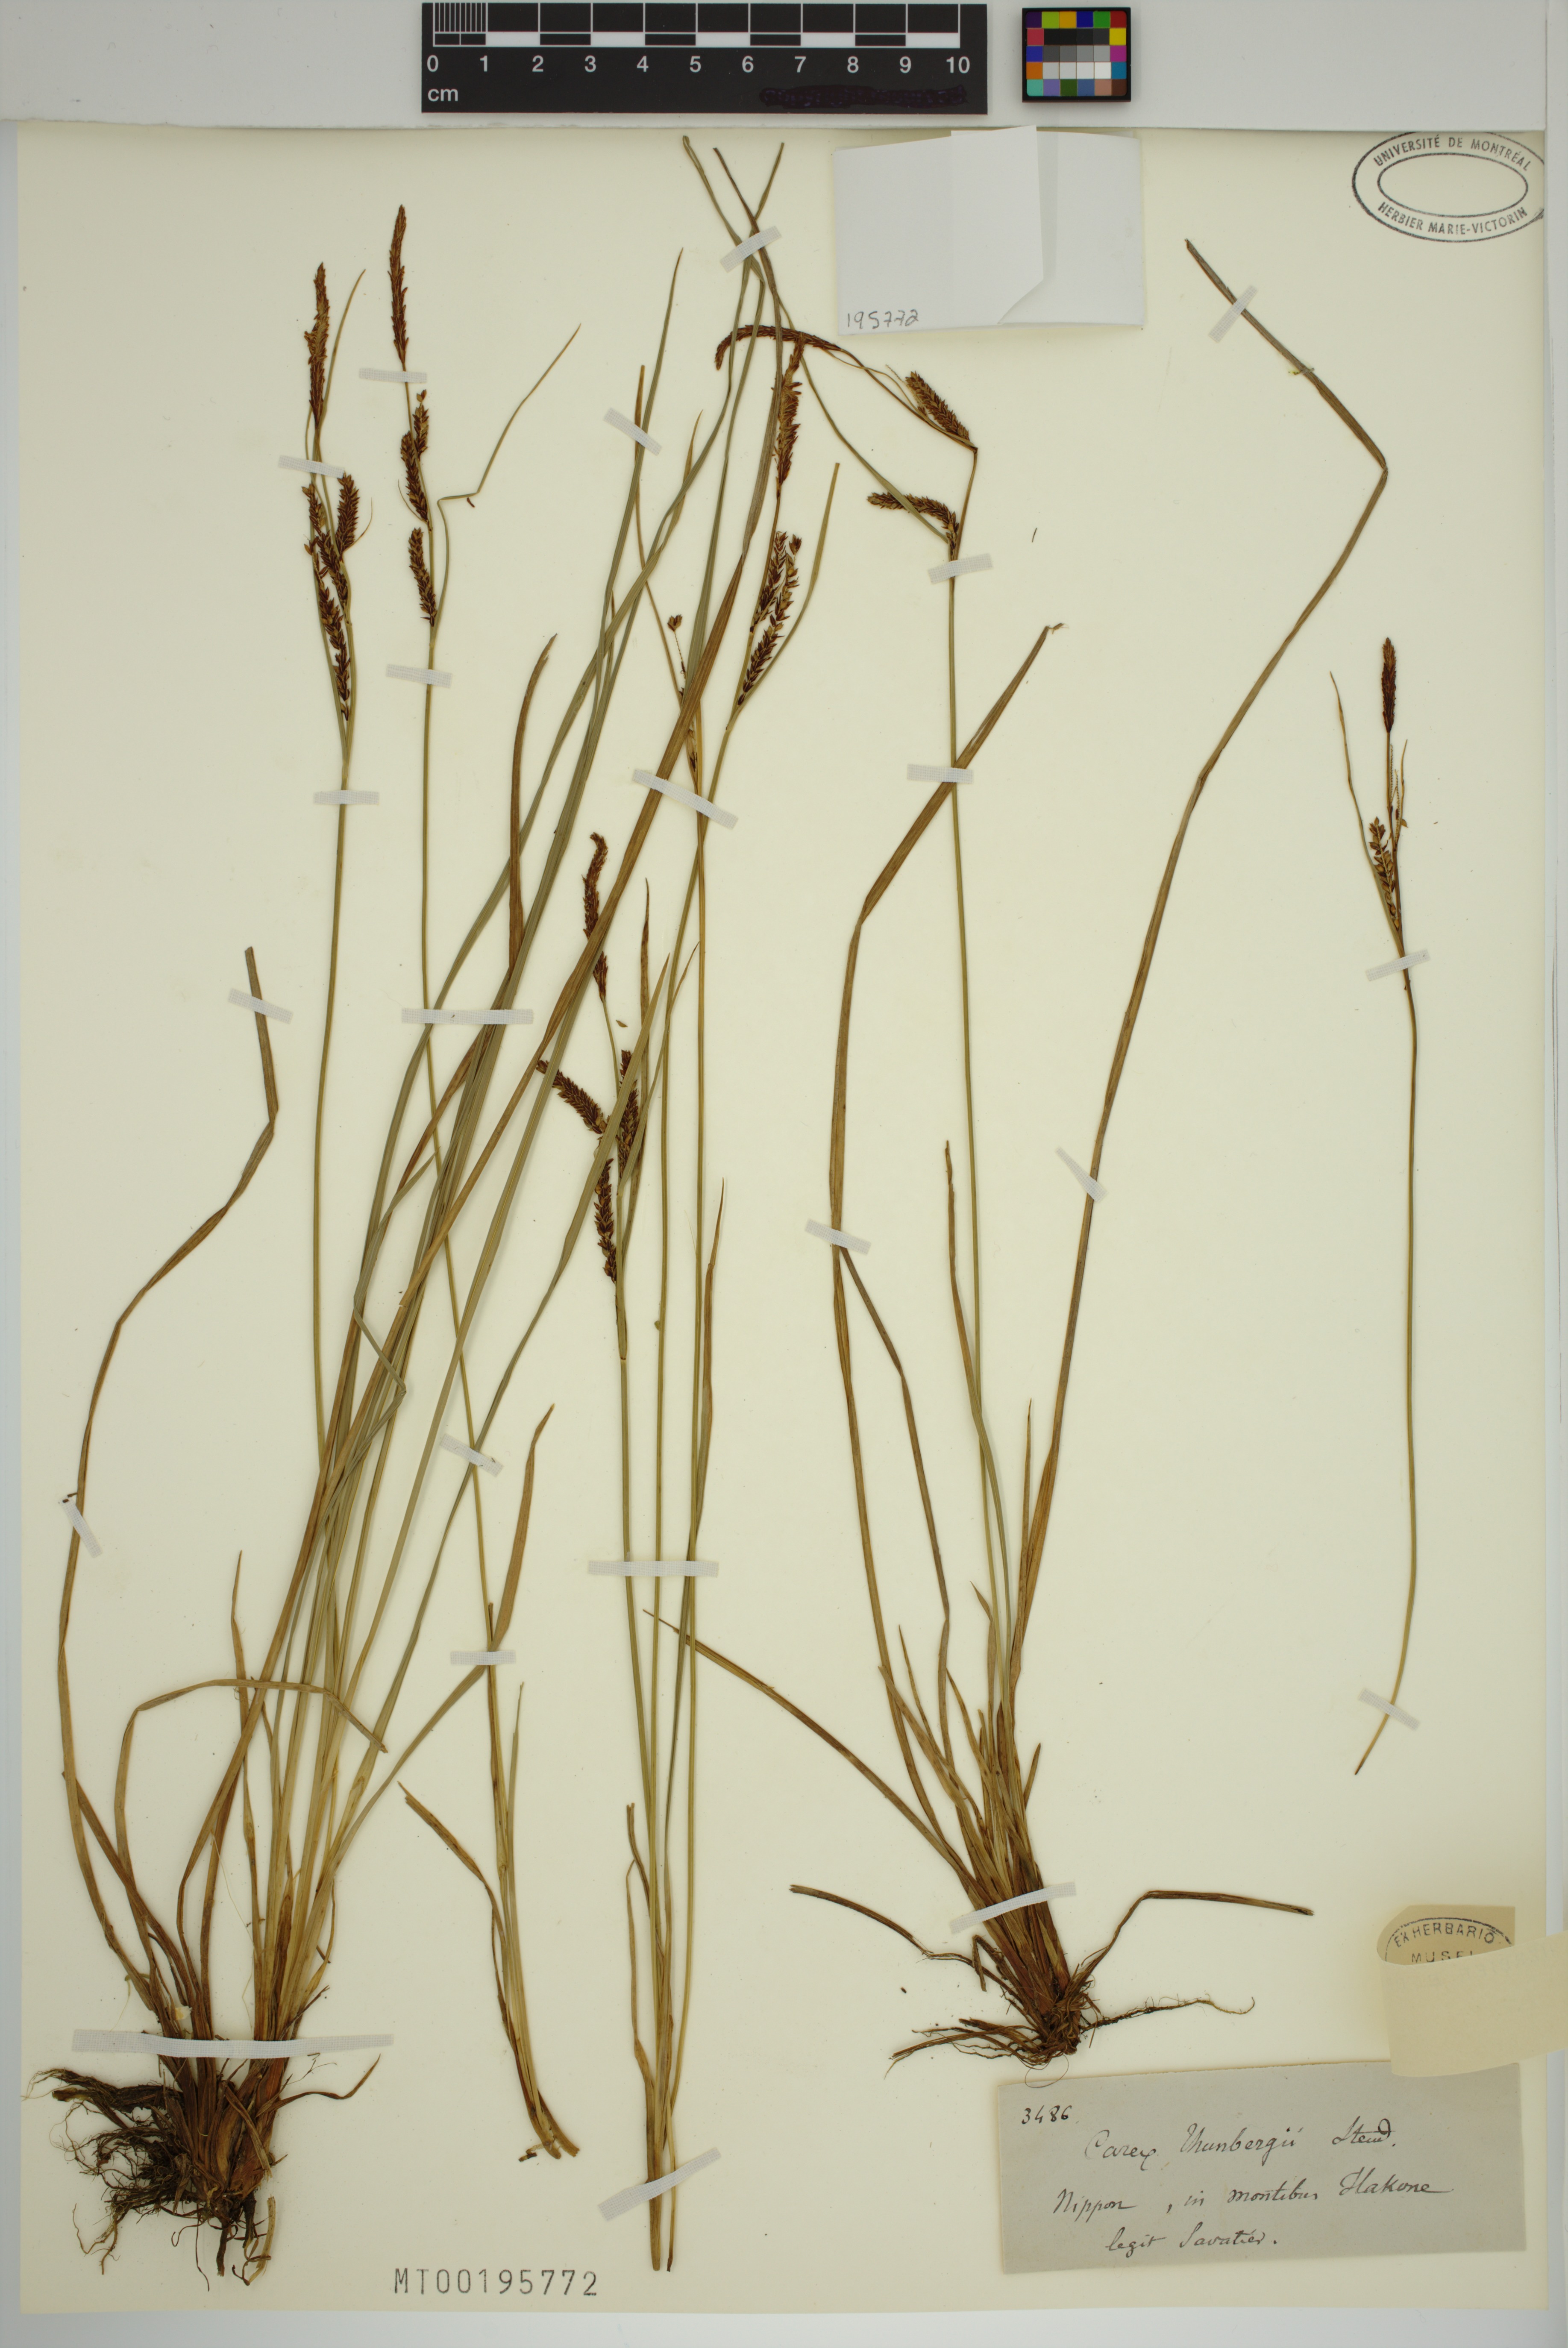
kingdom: Plantae
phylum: Tracheophyta
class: Liliopsida
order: Poales
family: Cyperaceae
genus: Carex
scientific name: Carex thunbergii
